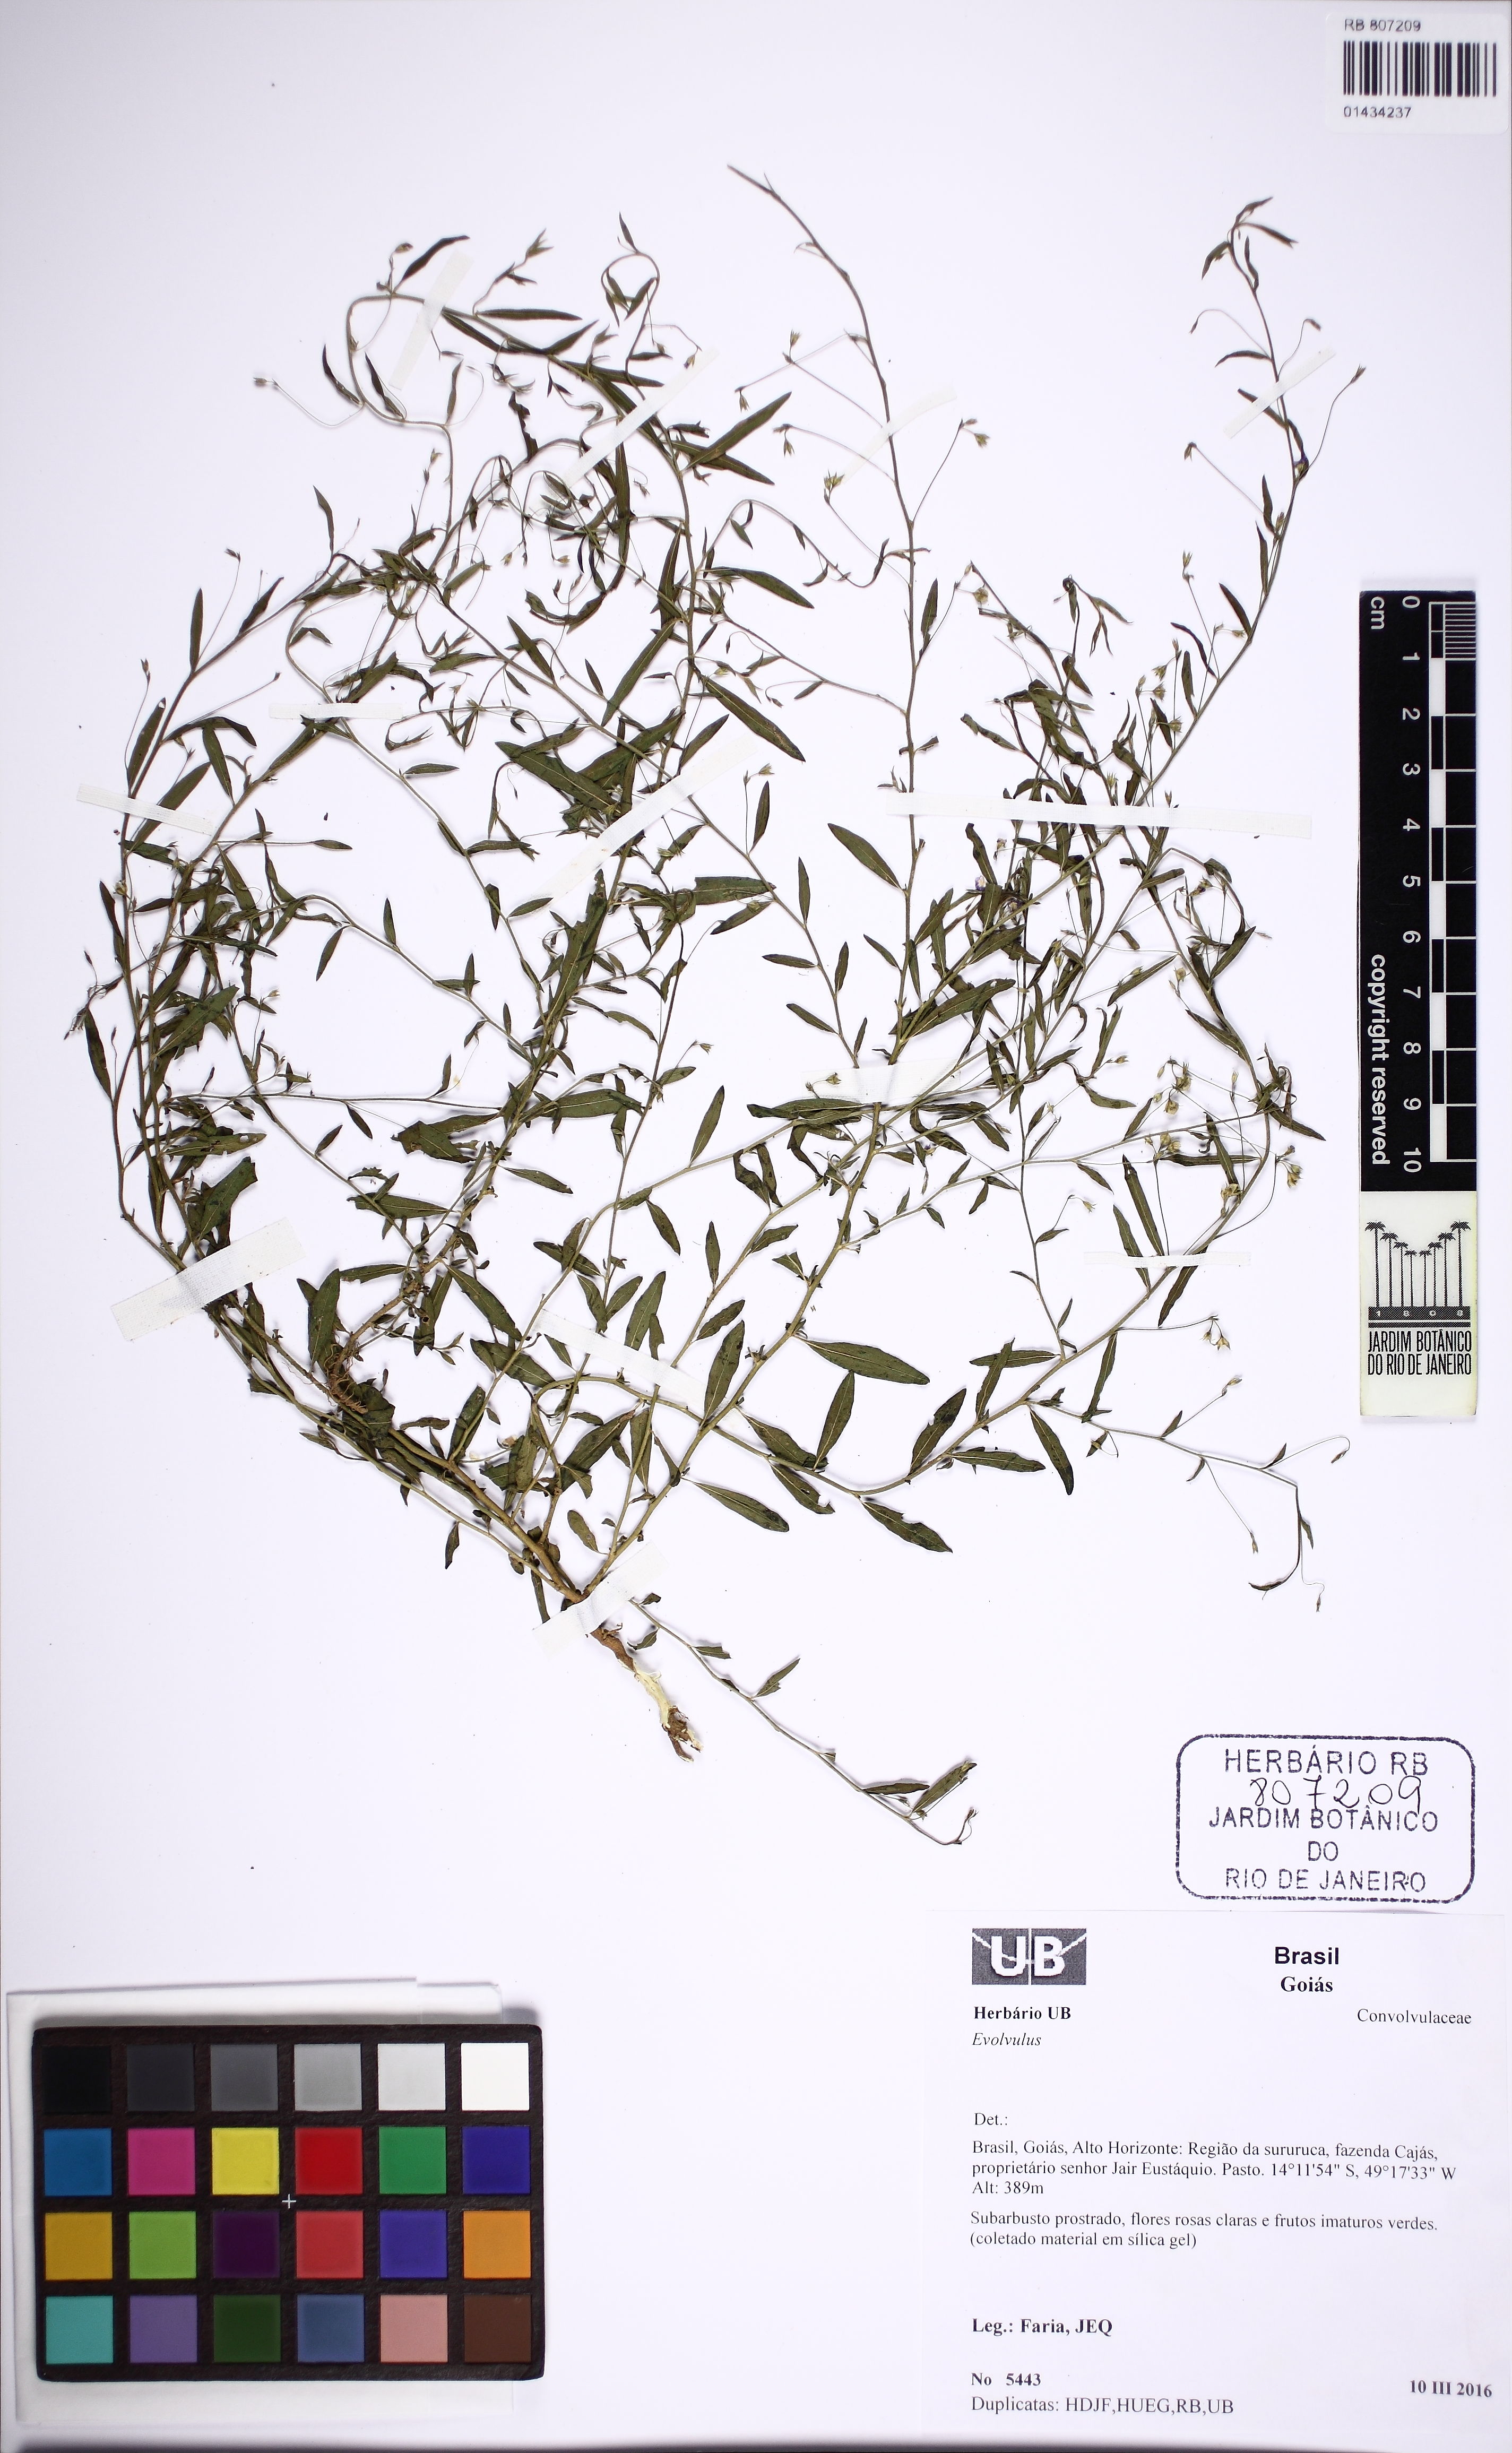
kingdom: Plantae
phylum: Tracheophyta
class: Magnoliopsida
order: Solanales
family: Convolvulaceae
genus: Evolvulus
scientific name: Evolvulus
